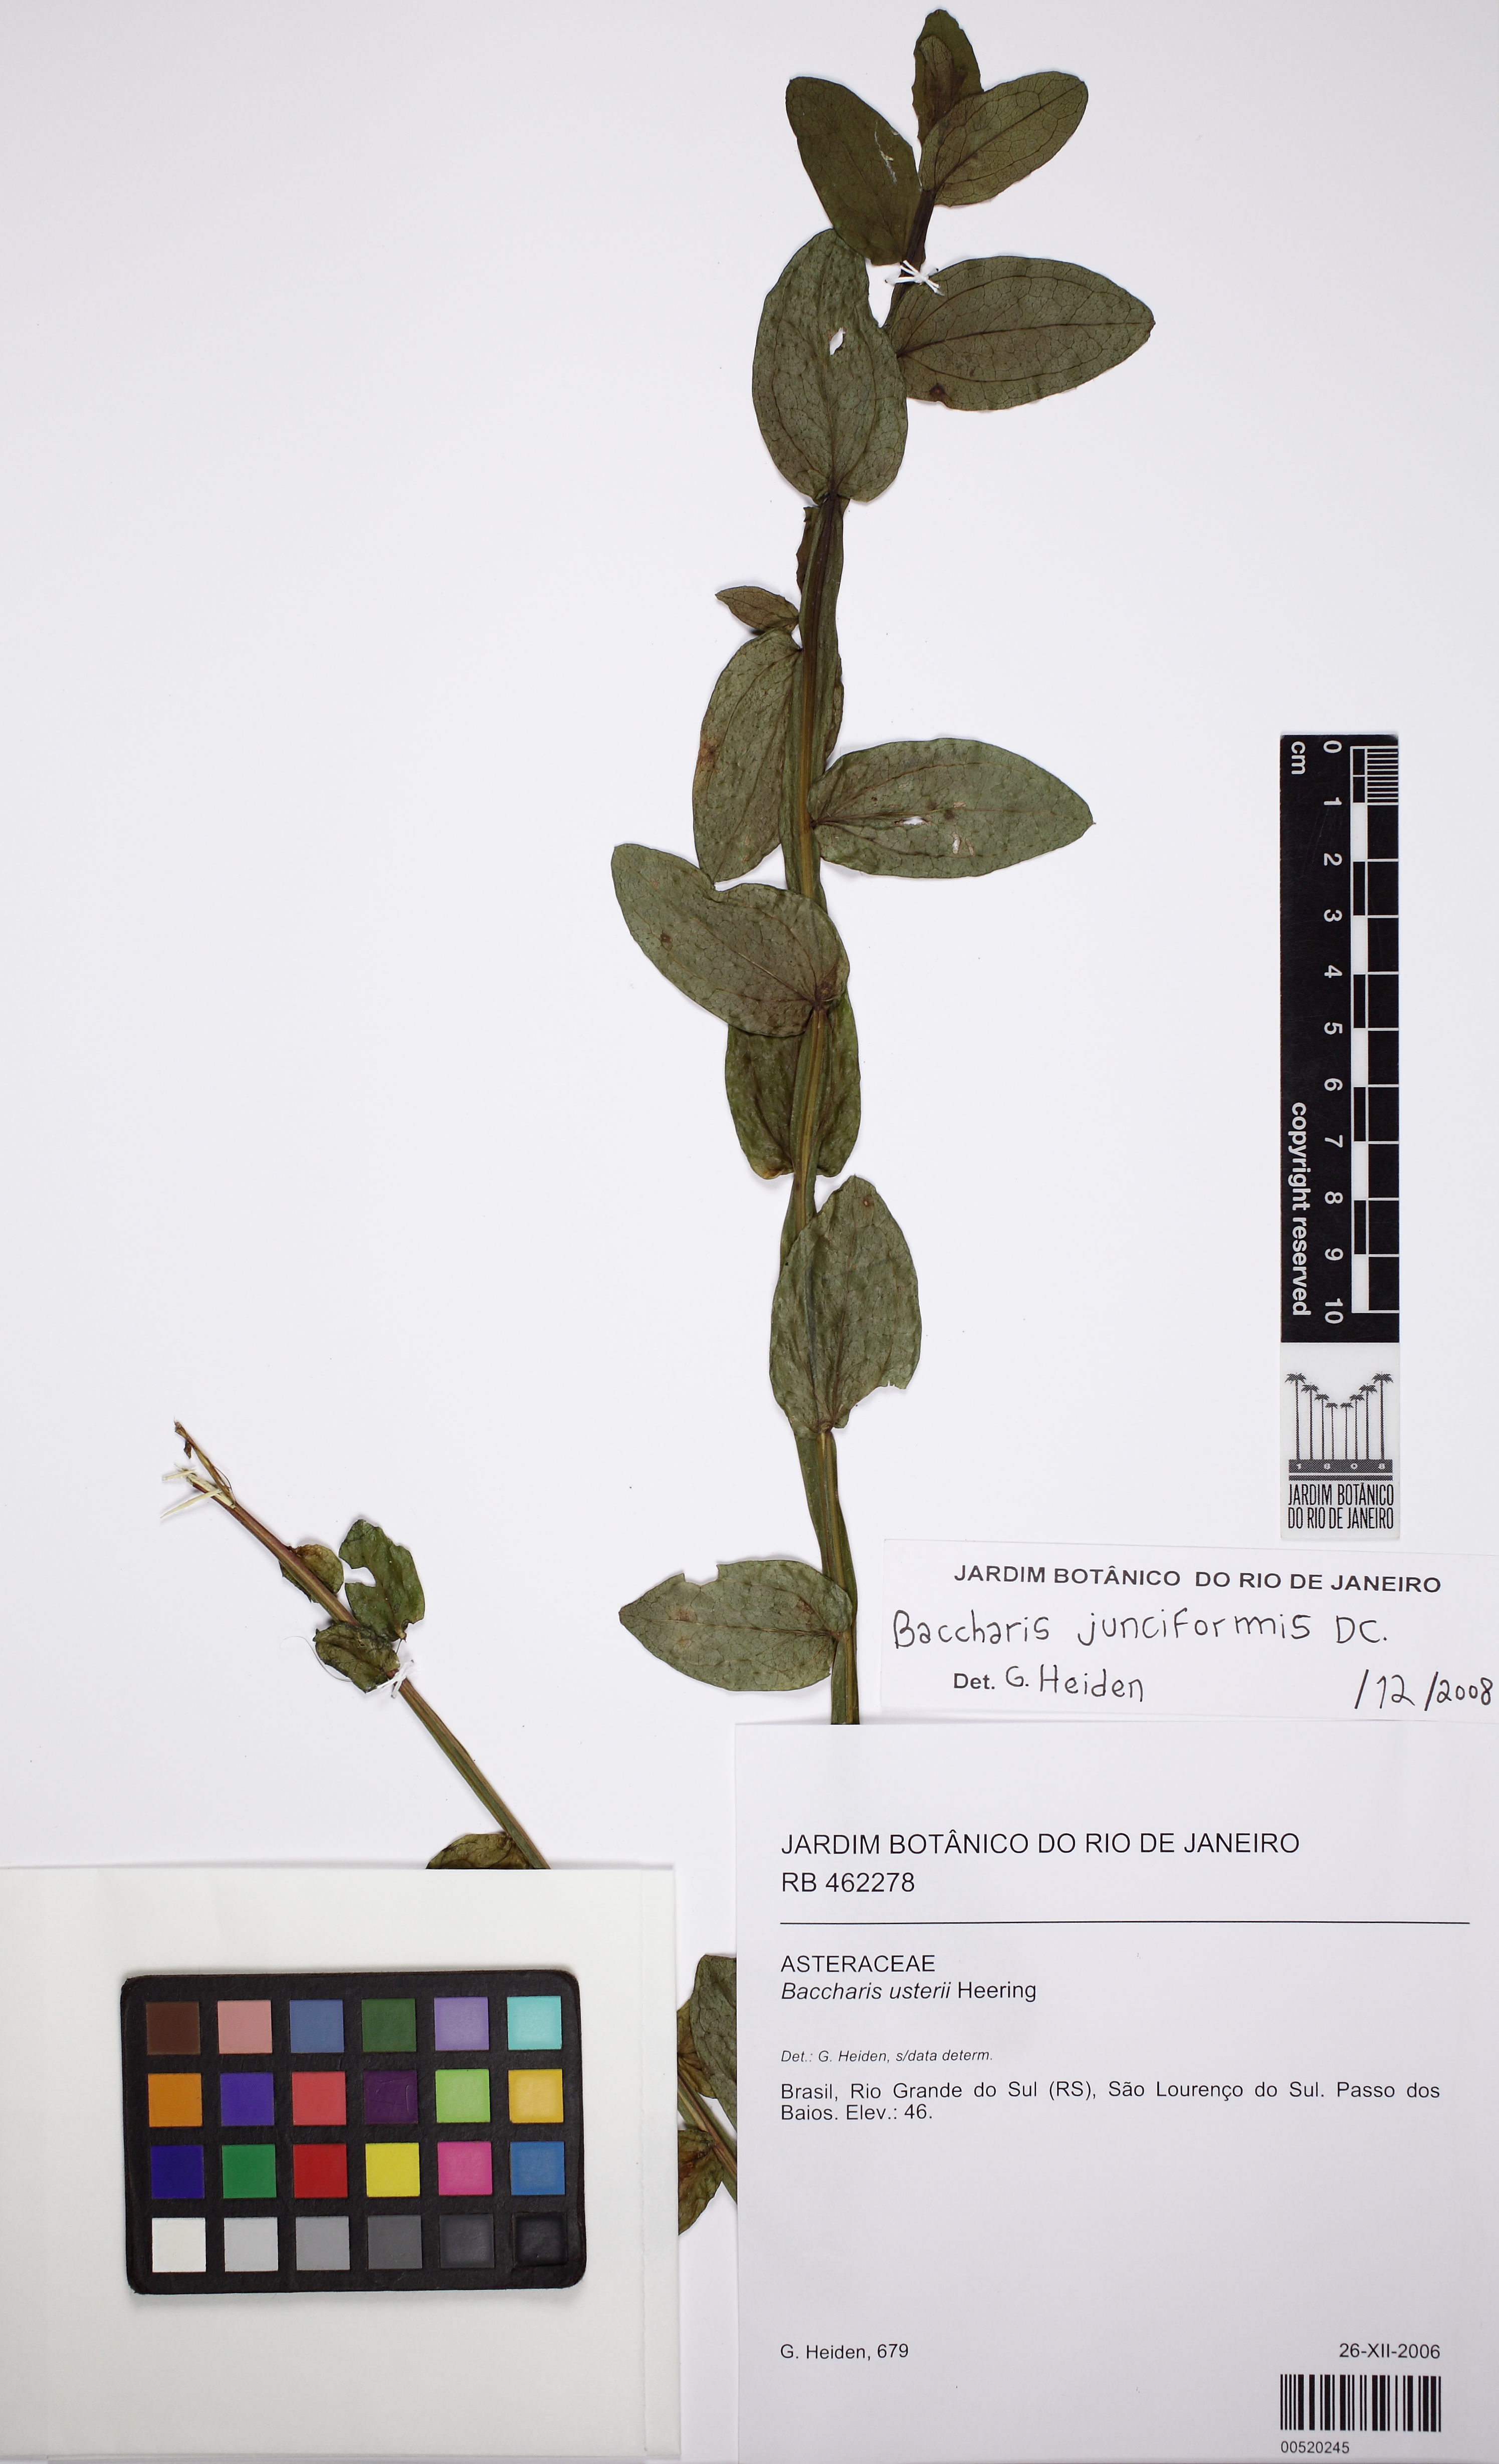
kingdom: Plantae
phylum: Tracheophyta
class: Magnoliopsida
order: Asterales
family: Asteraceae
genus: Baccharis
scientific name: Baccharis junciformis
